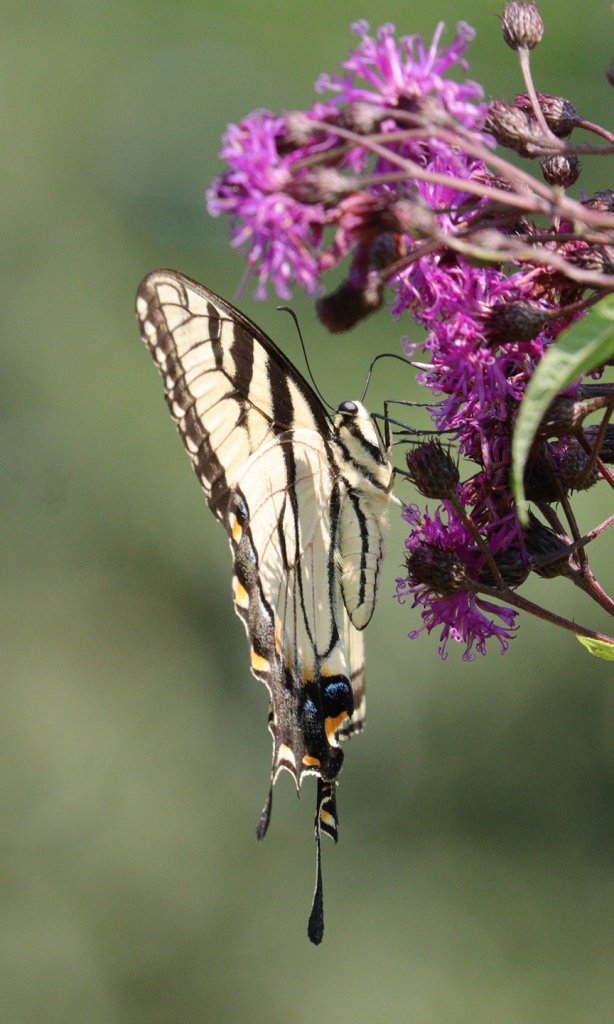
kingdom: Animalia
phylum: Arthropoda
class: Insecta
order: Lepidoptera
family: Papilionidae
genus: Pterourus
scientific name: Pterourus glaucus
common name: Eastern Tiger Swallowtail
